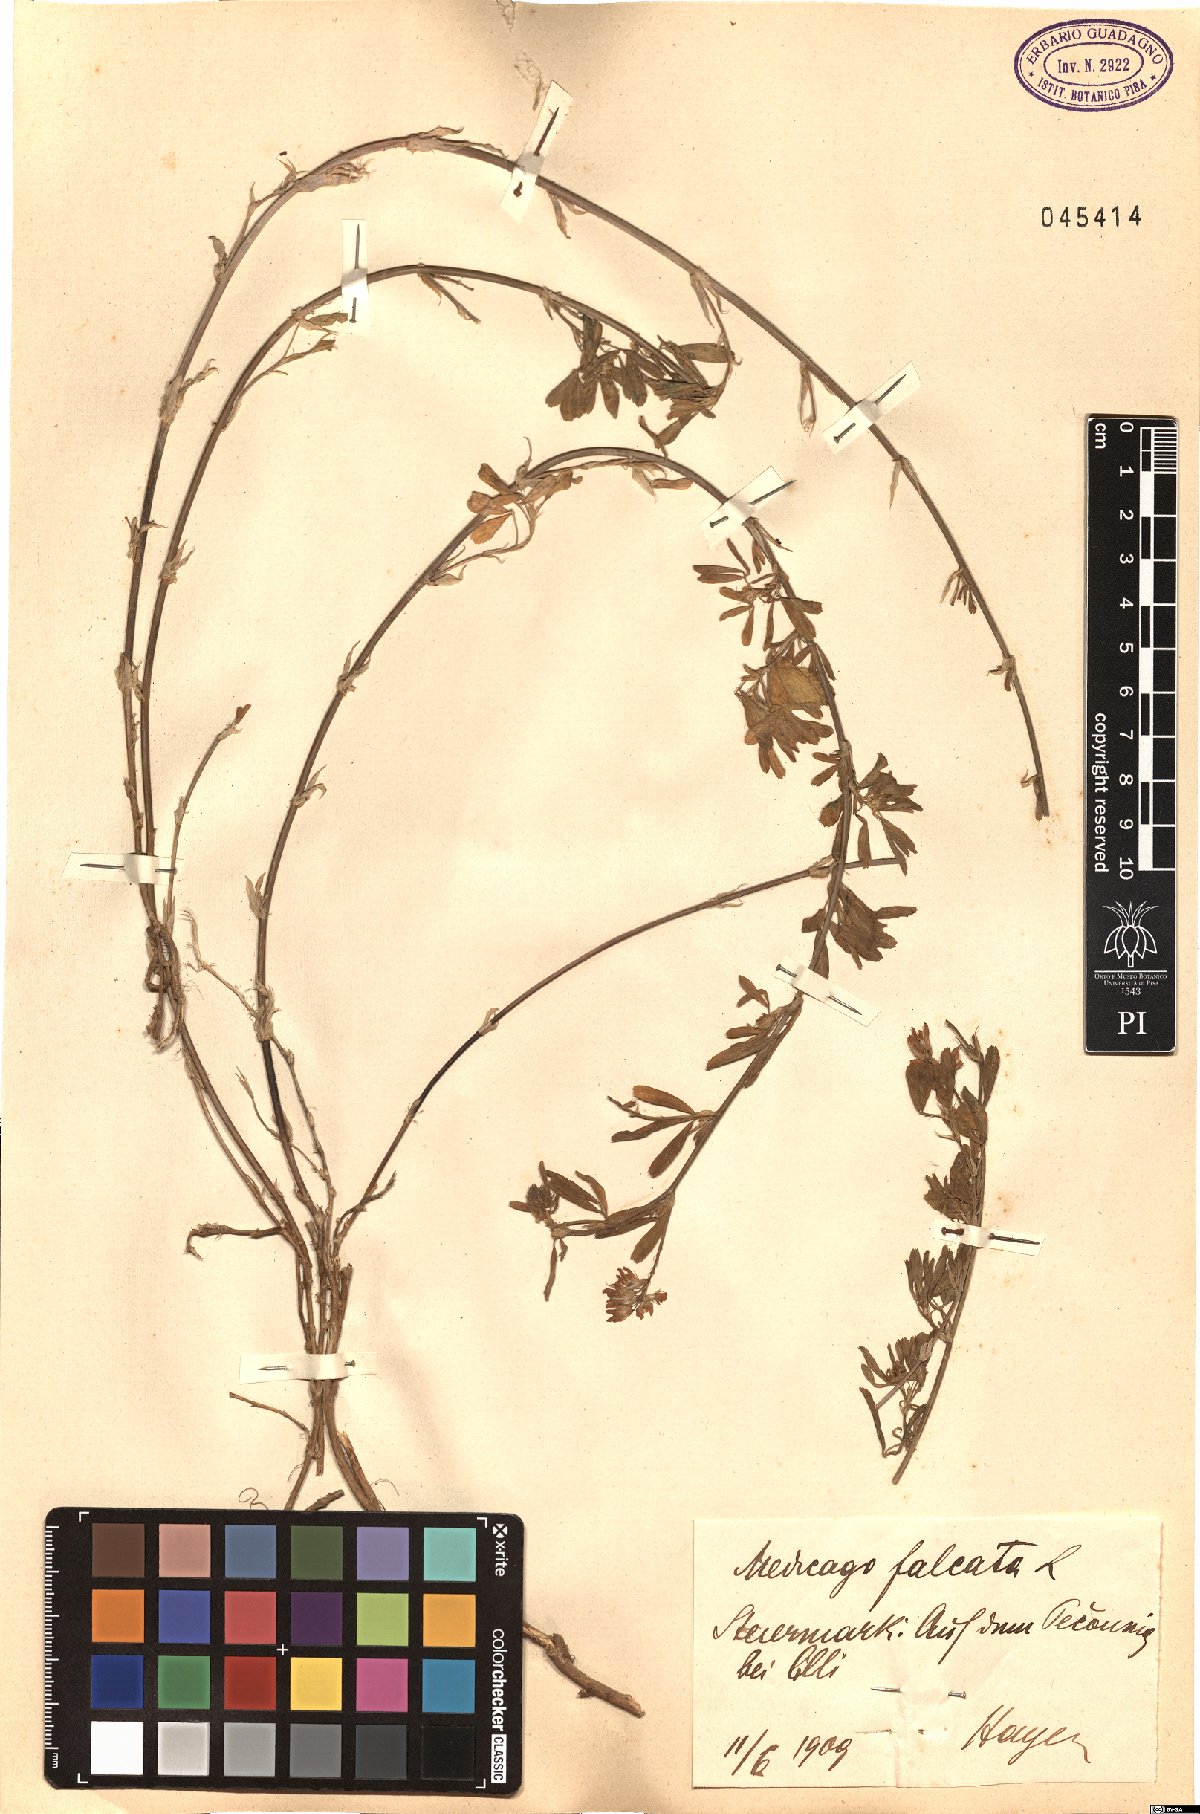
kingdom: Plantae
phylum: Tracheophyta
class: Magnoliopsida
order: Fabales
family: Fabaceae
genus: Medicago
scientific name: Medicago falcata
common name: Sickle medick
